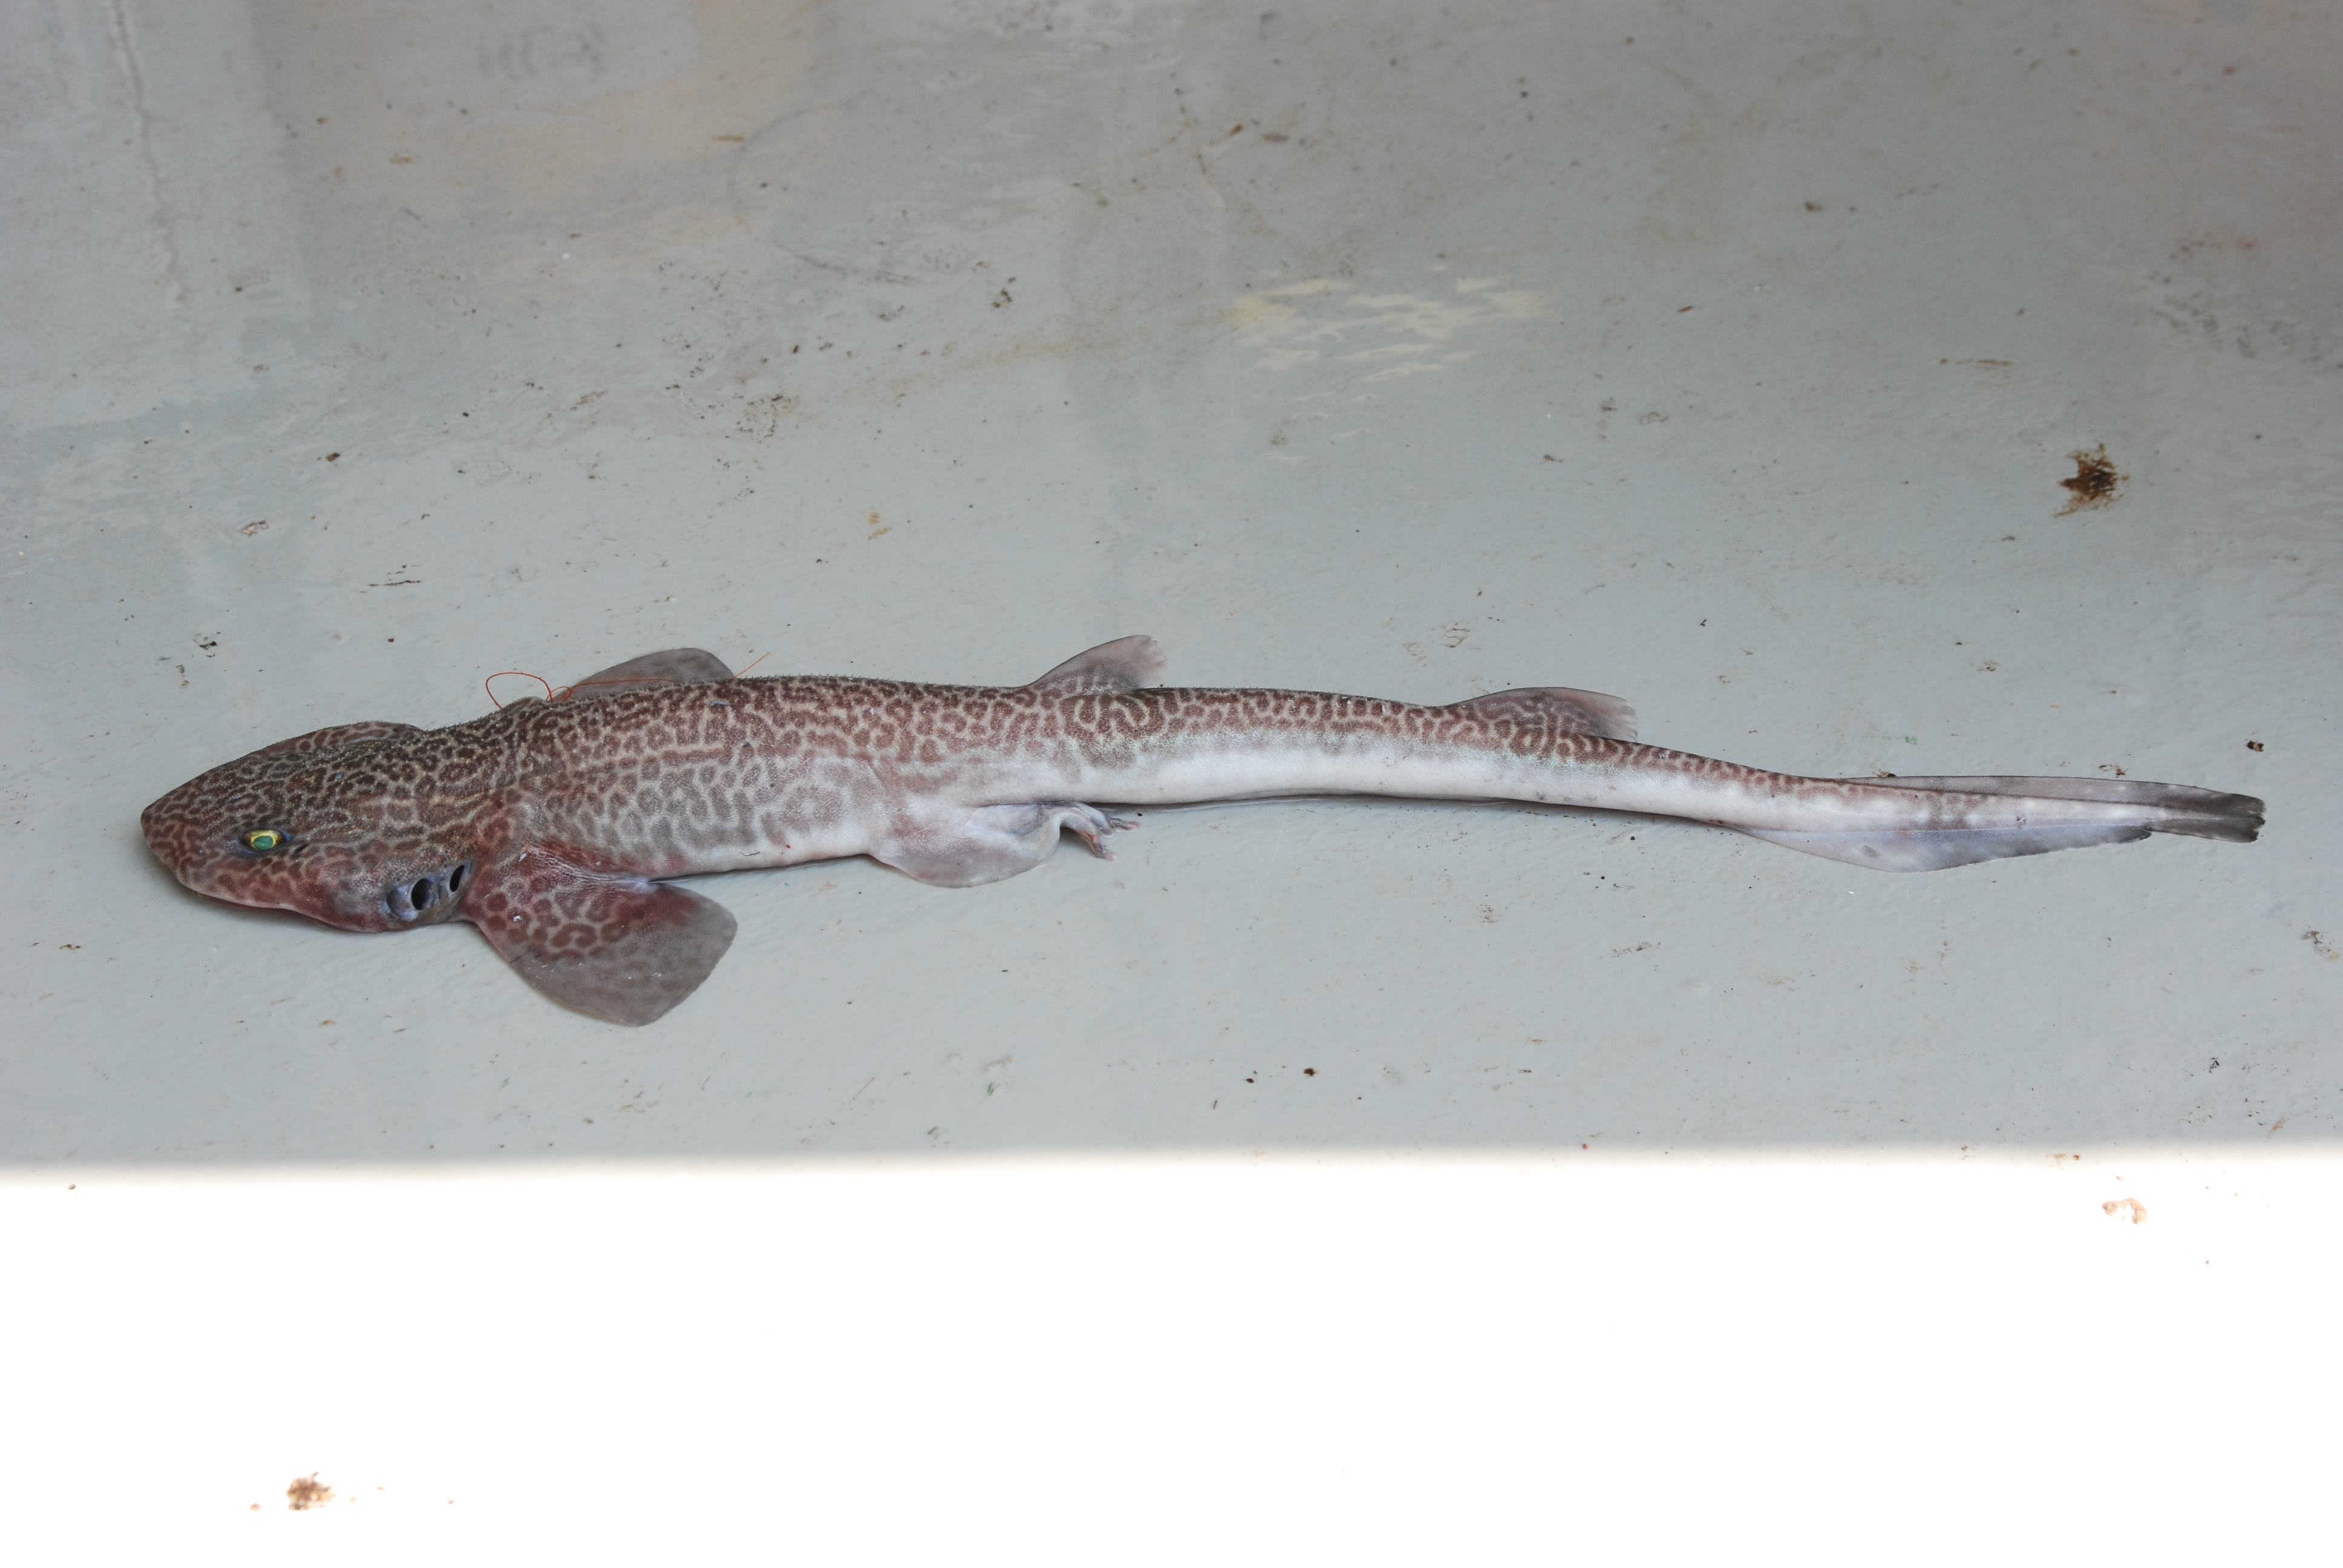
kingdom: Animalia
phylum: Chordata
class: Elasmobranchii
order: Carcharhiniformes
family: Scyliorhinidae
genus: Holohalaelurus
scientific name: Holohalaelurus regani
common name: Izak
